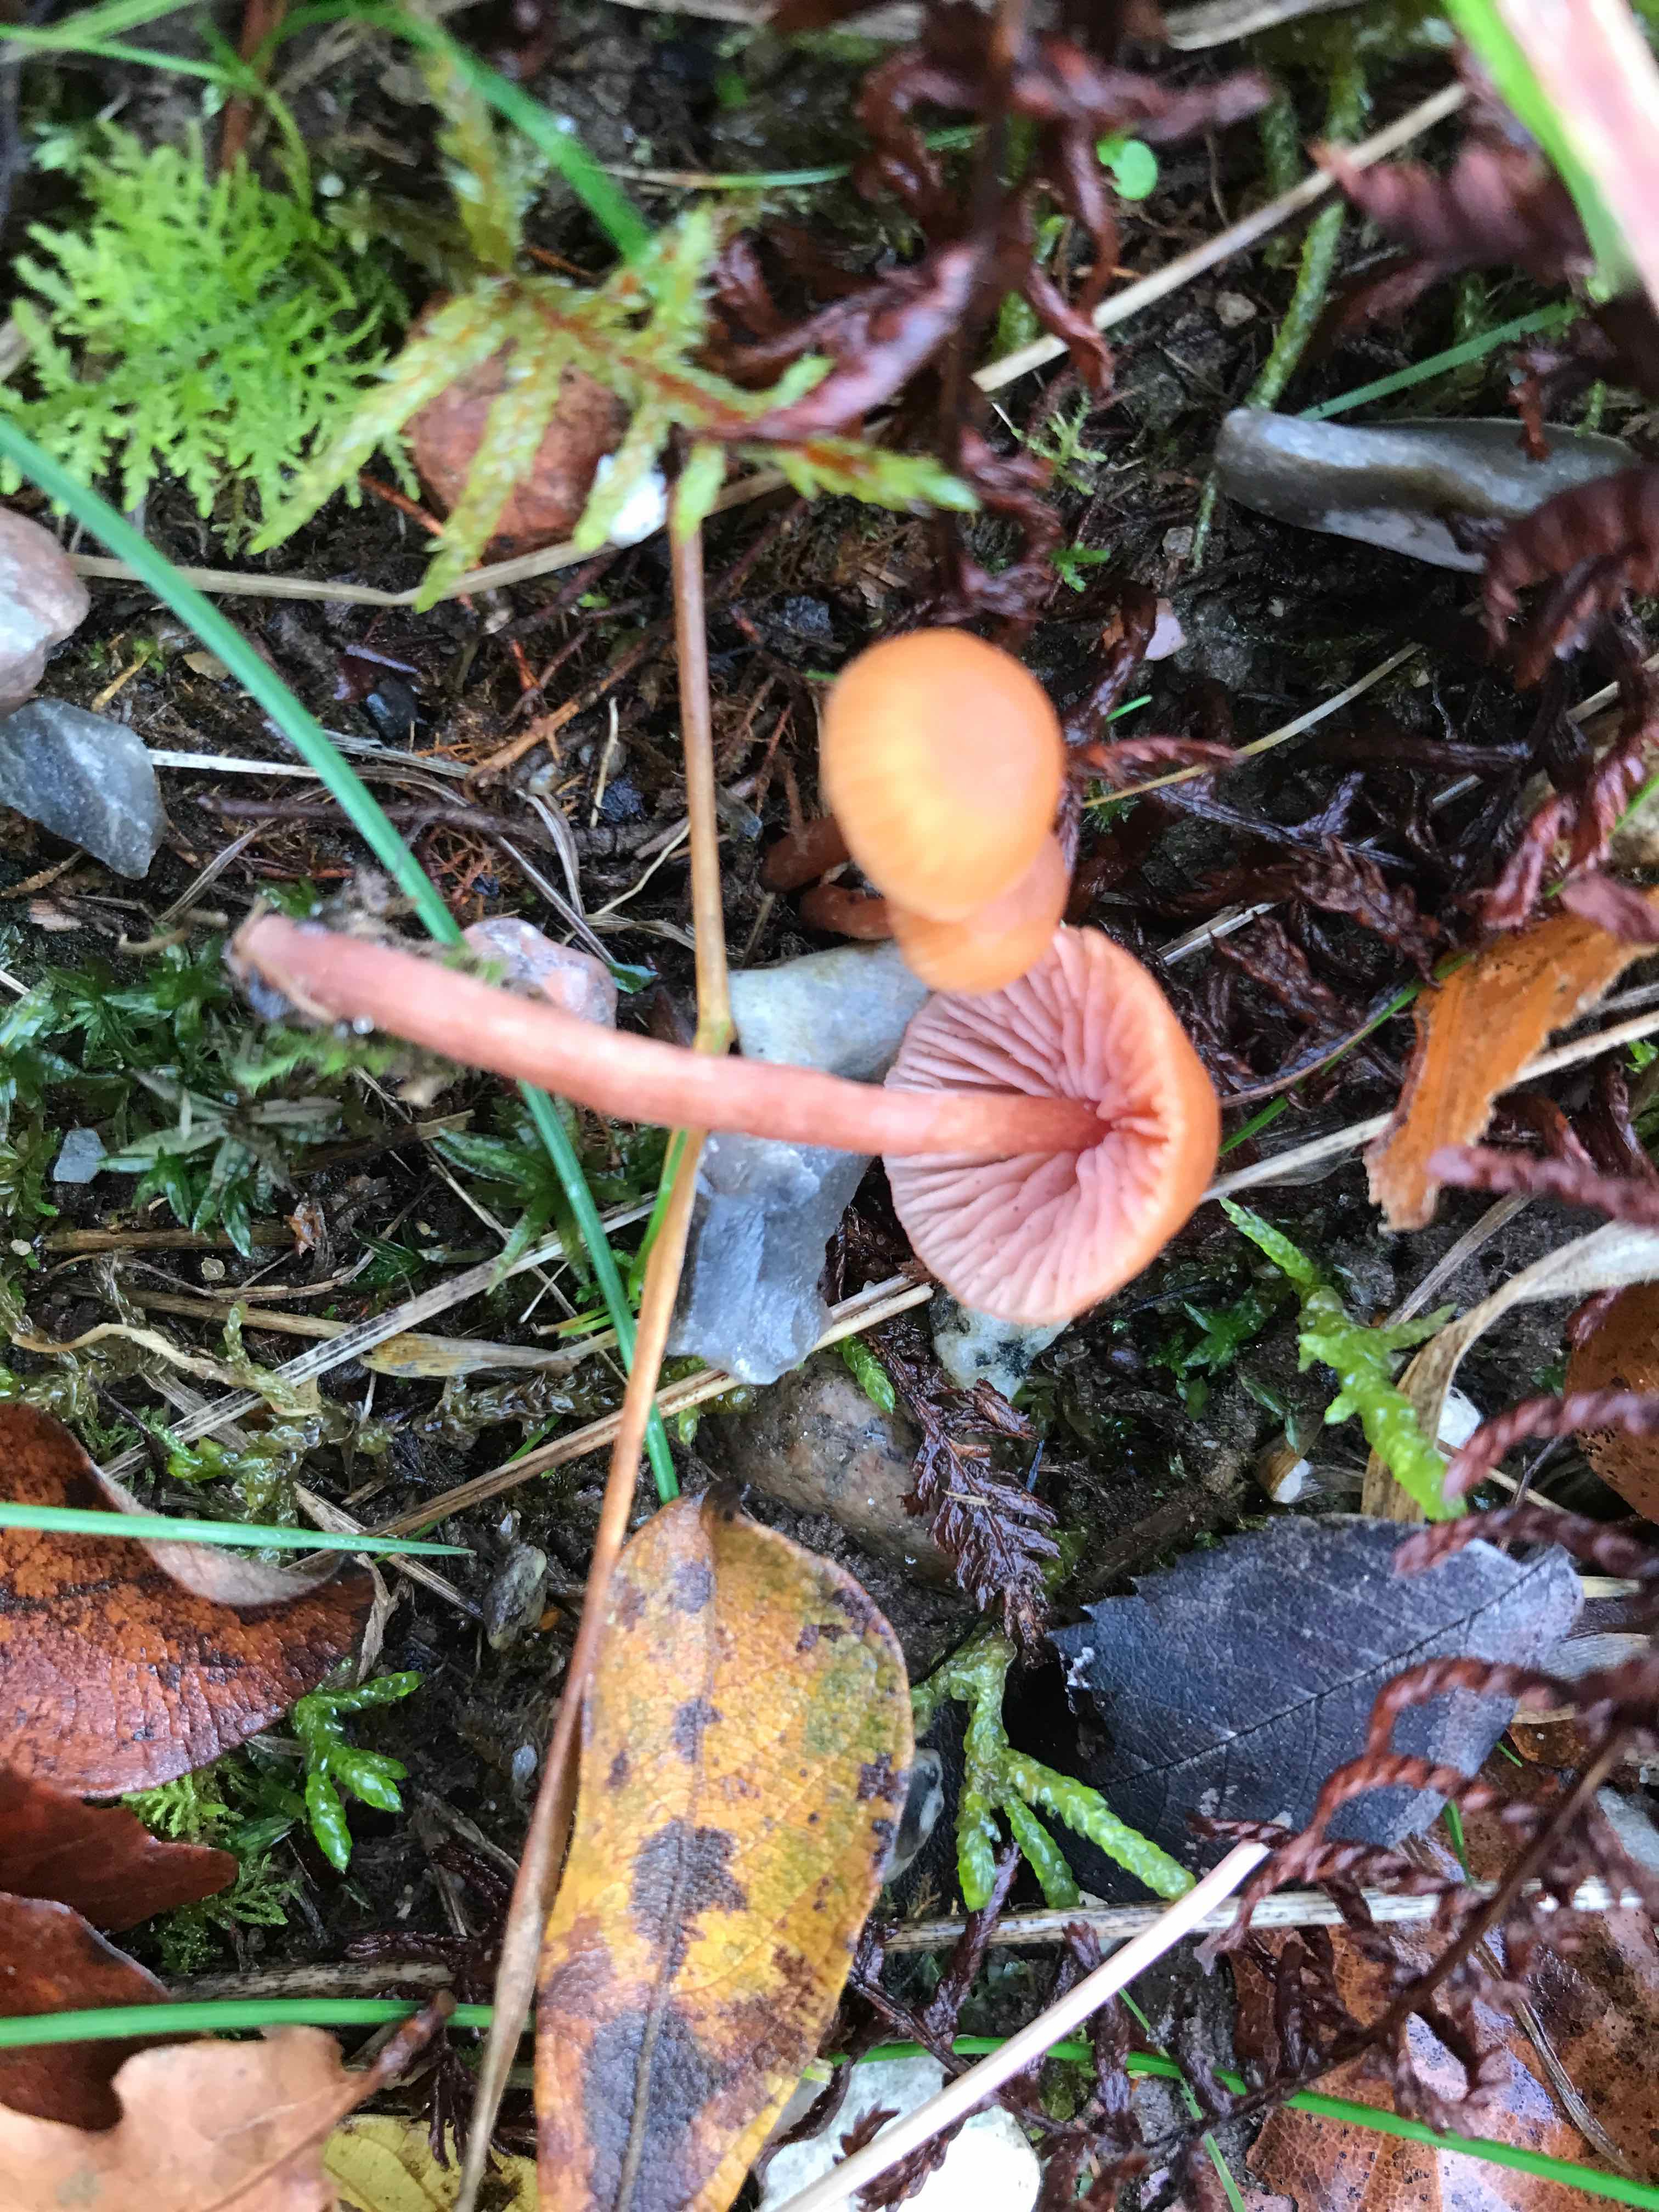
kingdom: Fungi
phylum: Basidiomycota
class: Agaricomycetes
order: Agaricales
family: Hydnangiaceae
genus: Laccaria
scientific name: Laccaria laccata
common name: rød ametysthat
